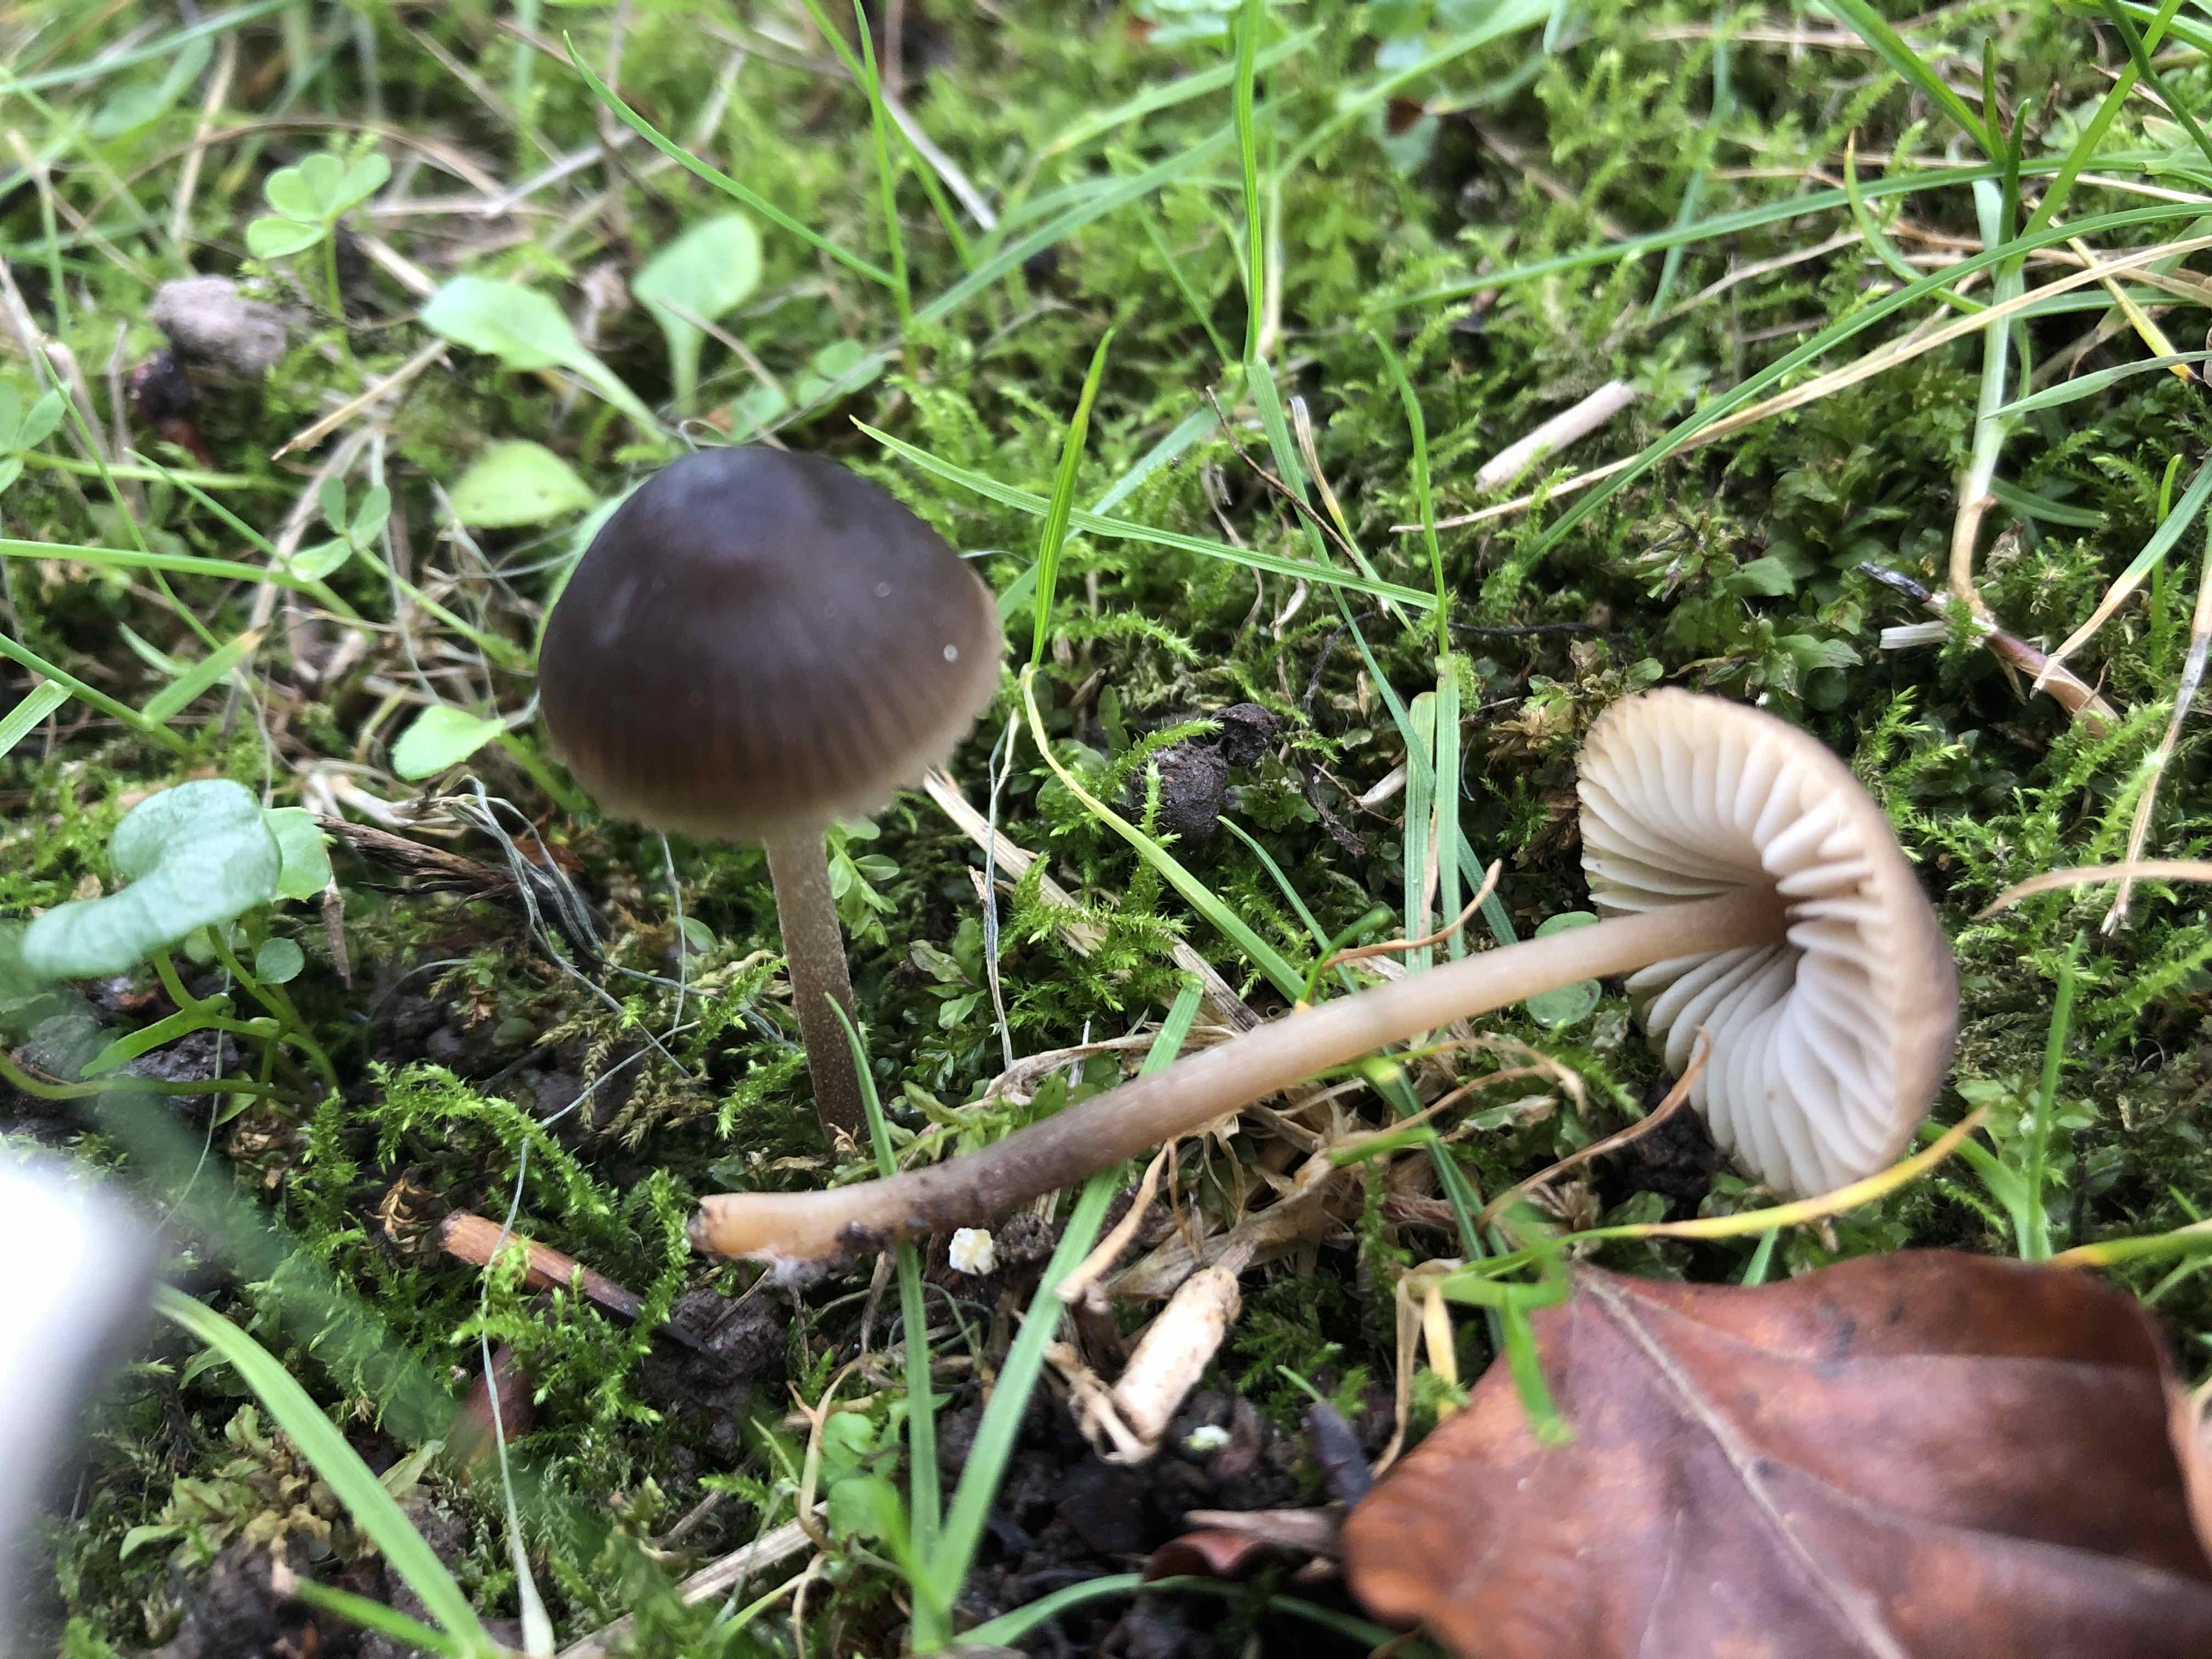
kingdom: Fungi
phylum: Basidiomycota
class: Agaricomycetes
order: Agaricales
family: Mycenaceae
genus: Mycopan
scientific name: Mycopan scabripes
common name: mørk fnugfod
